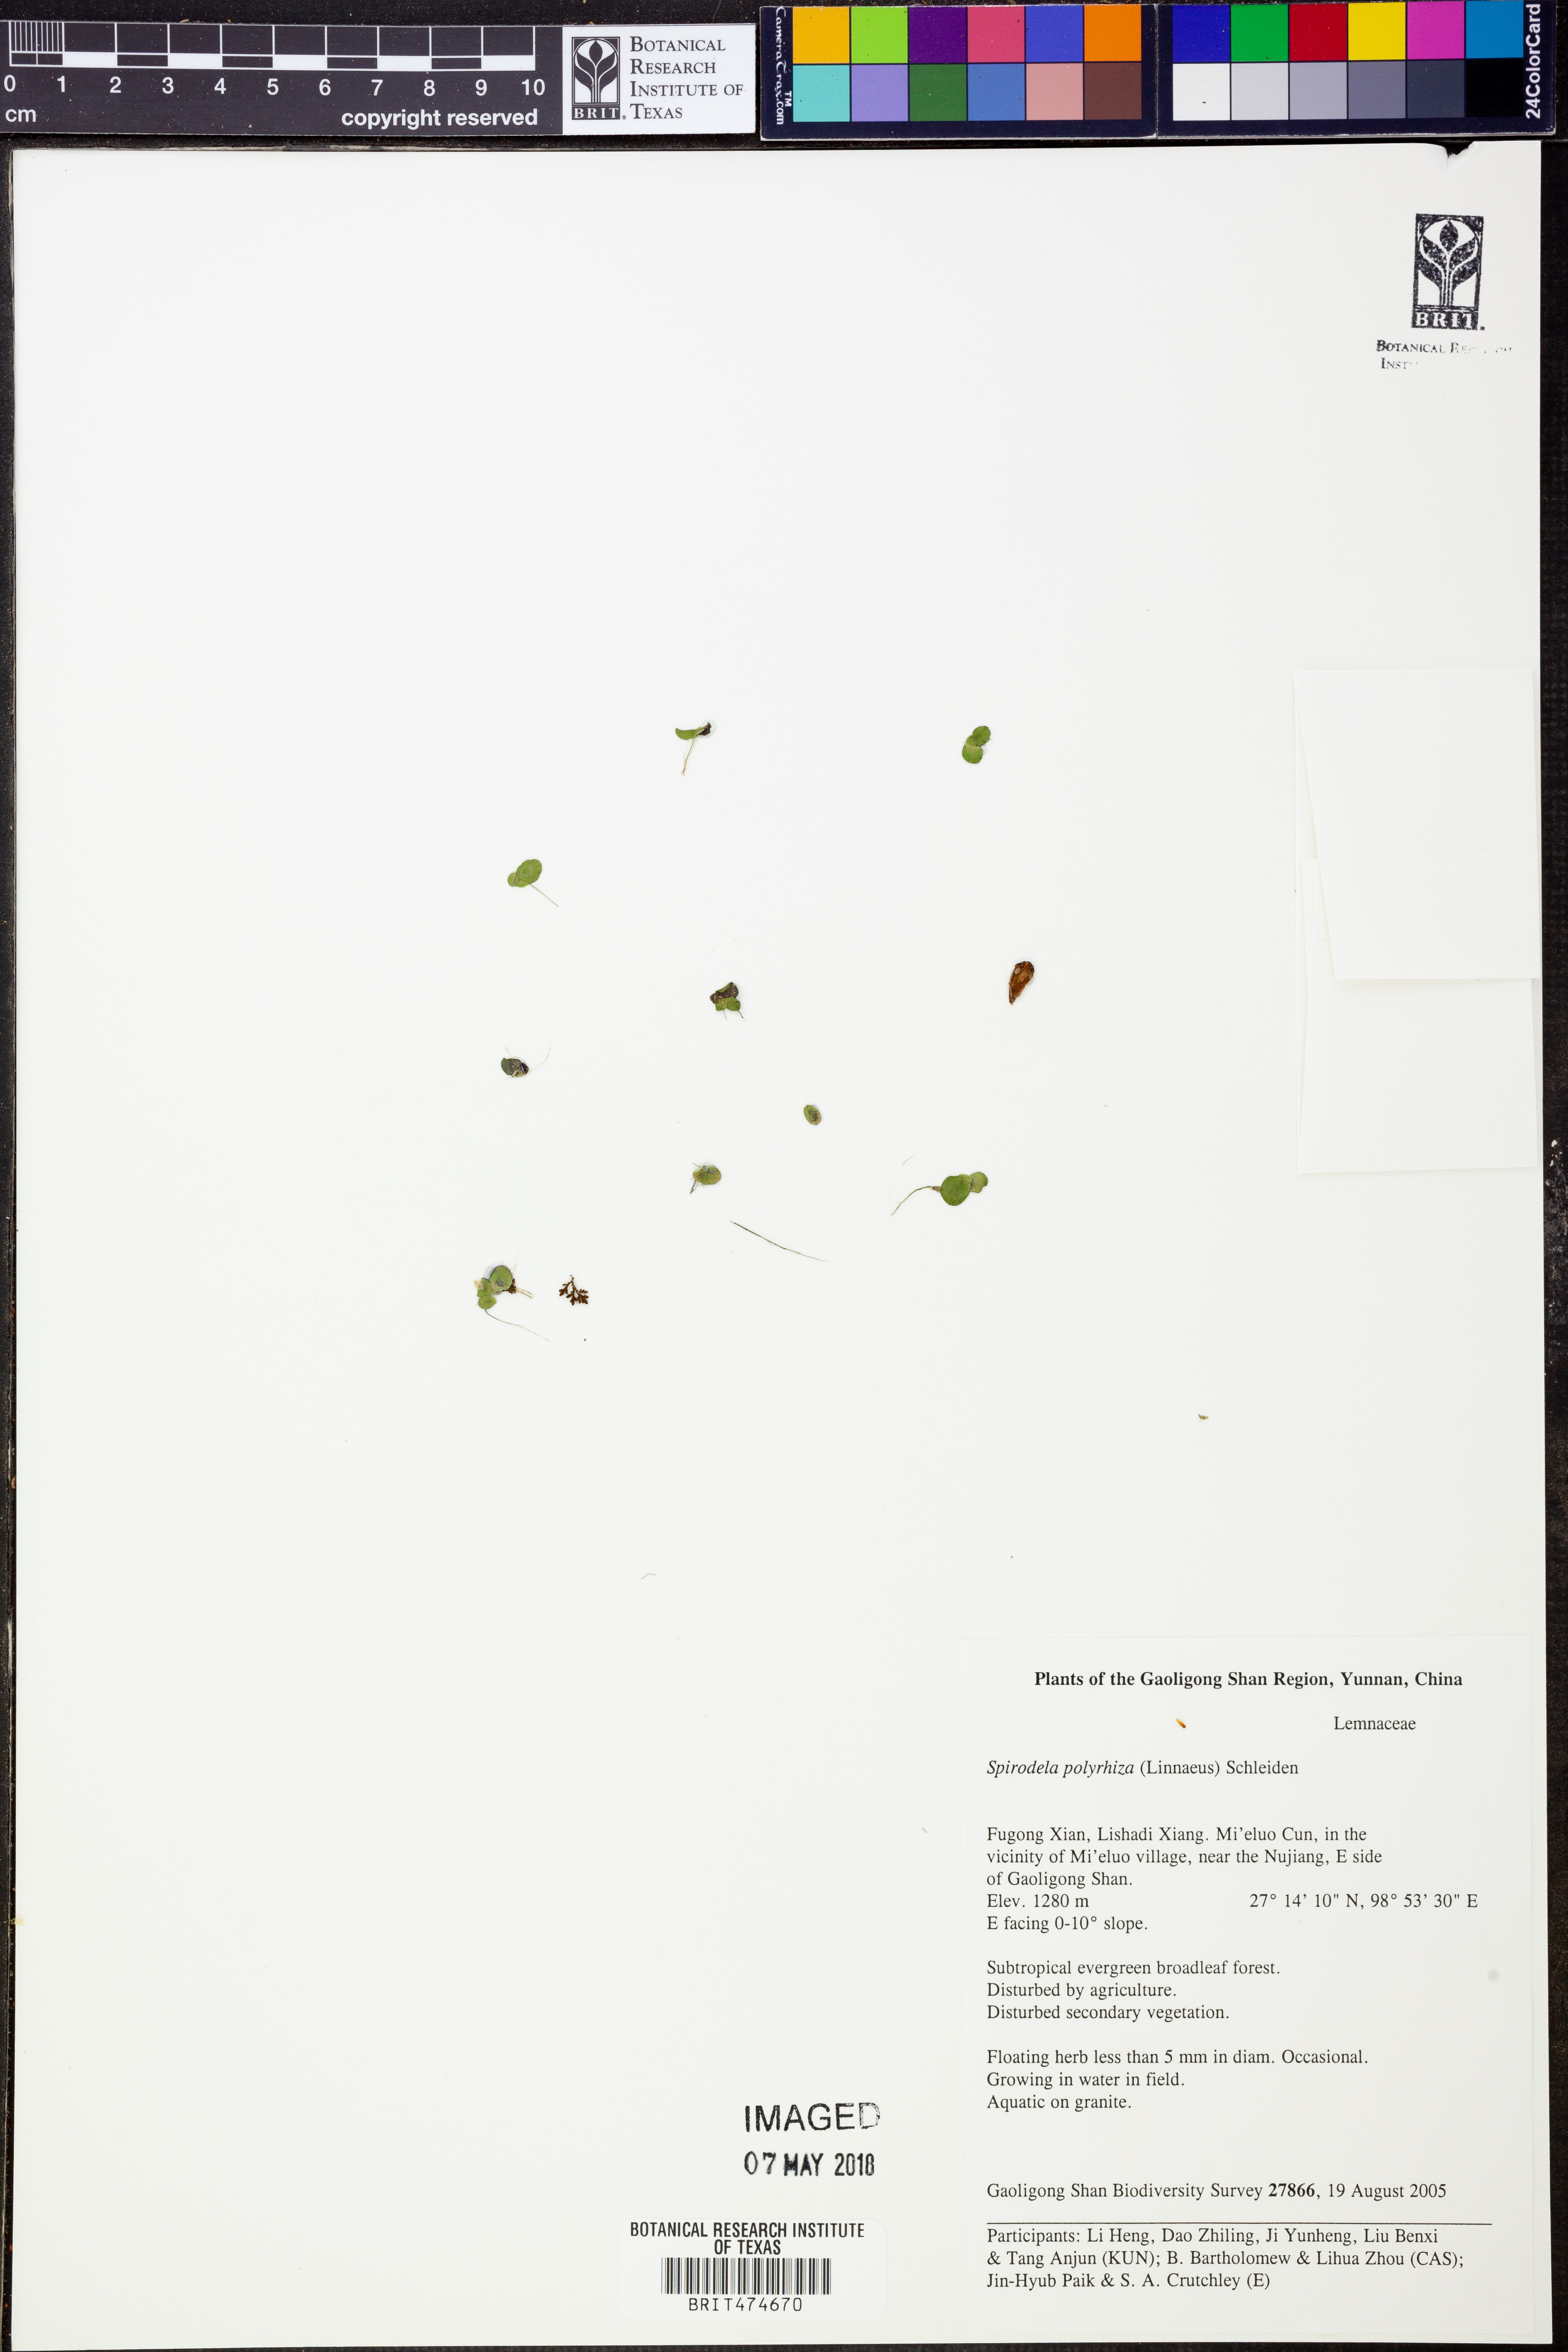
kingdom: Plantae
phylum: Tracheophyta
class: Liliopsida
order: Alismatales
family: Araceae
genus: Spirodela
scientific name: Spirodela polyrhiza
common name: Great duckweed
